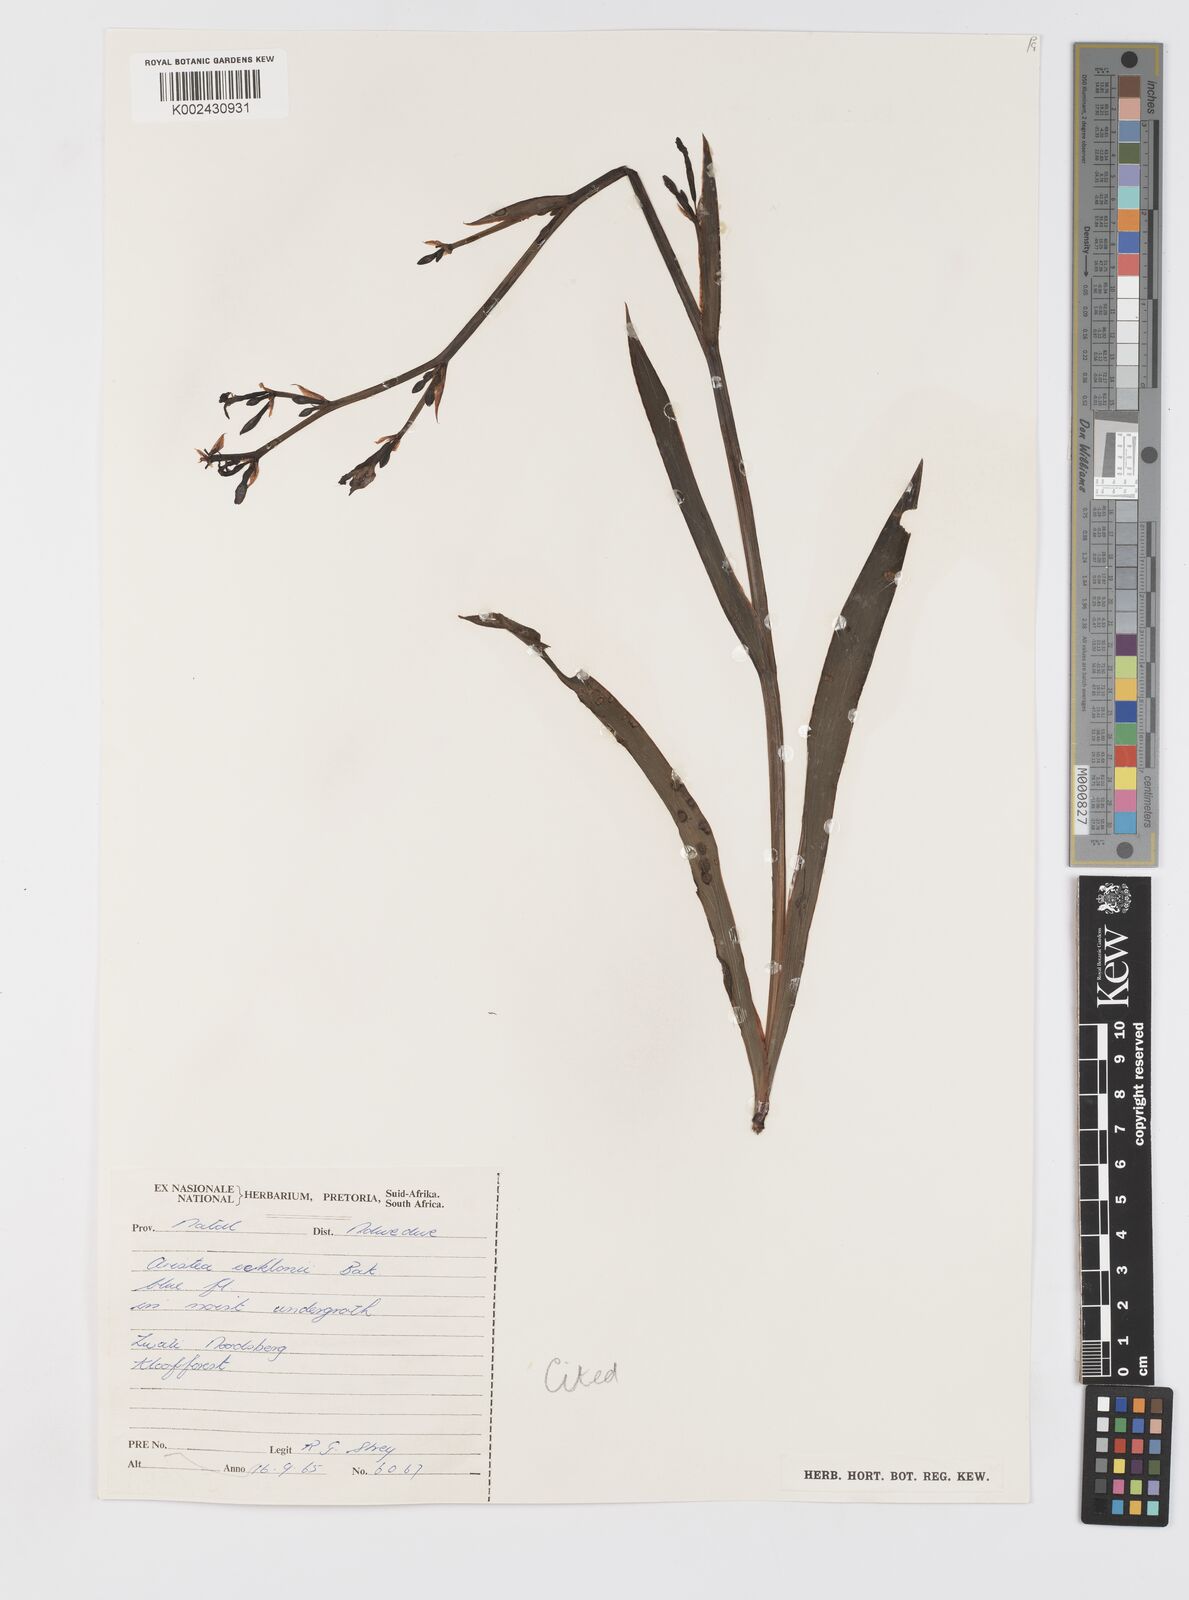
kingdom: Plantae
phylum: Tracheophyta
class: Liliopsida
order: Asparagales
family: Iridaceae
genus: Aristea
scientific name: Aristea ecklonii
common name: Blue corn-lily
